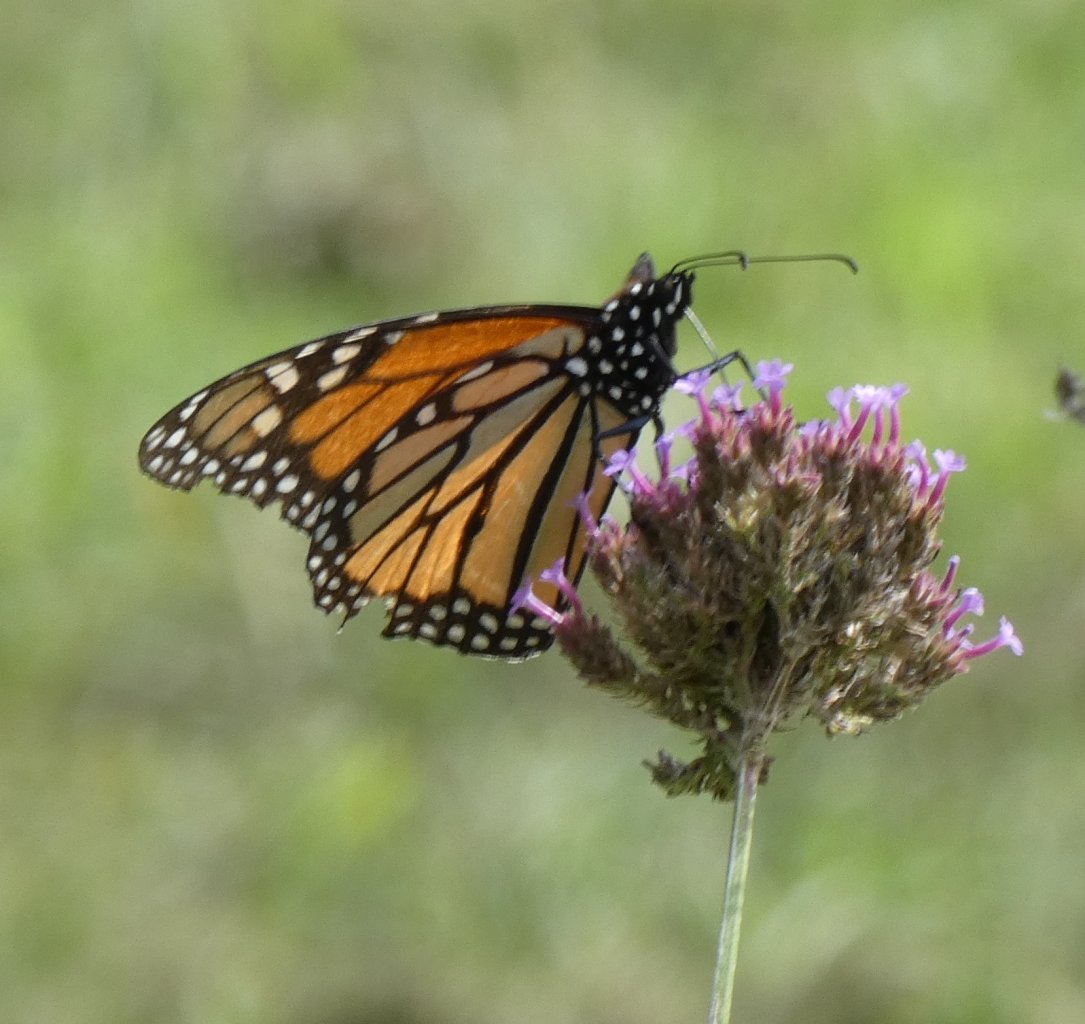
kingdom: Animalia
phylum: Arthropoda
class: Insecta
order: Lepidoptera
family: Nymphalidae
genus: Danaus
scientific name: Danaus plexippus
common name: Monarch
